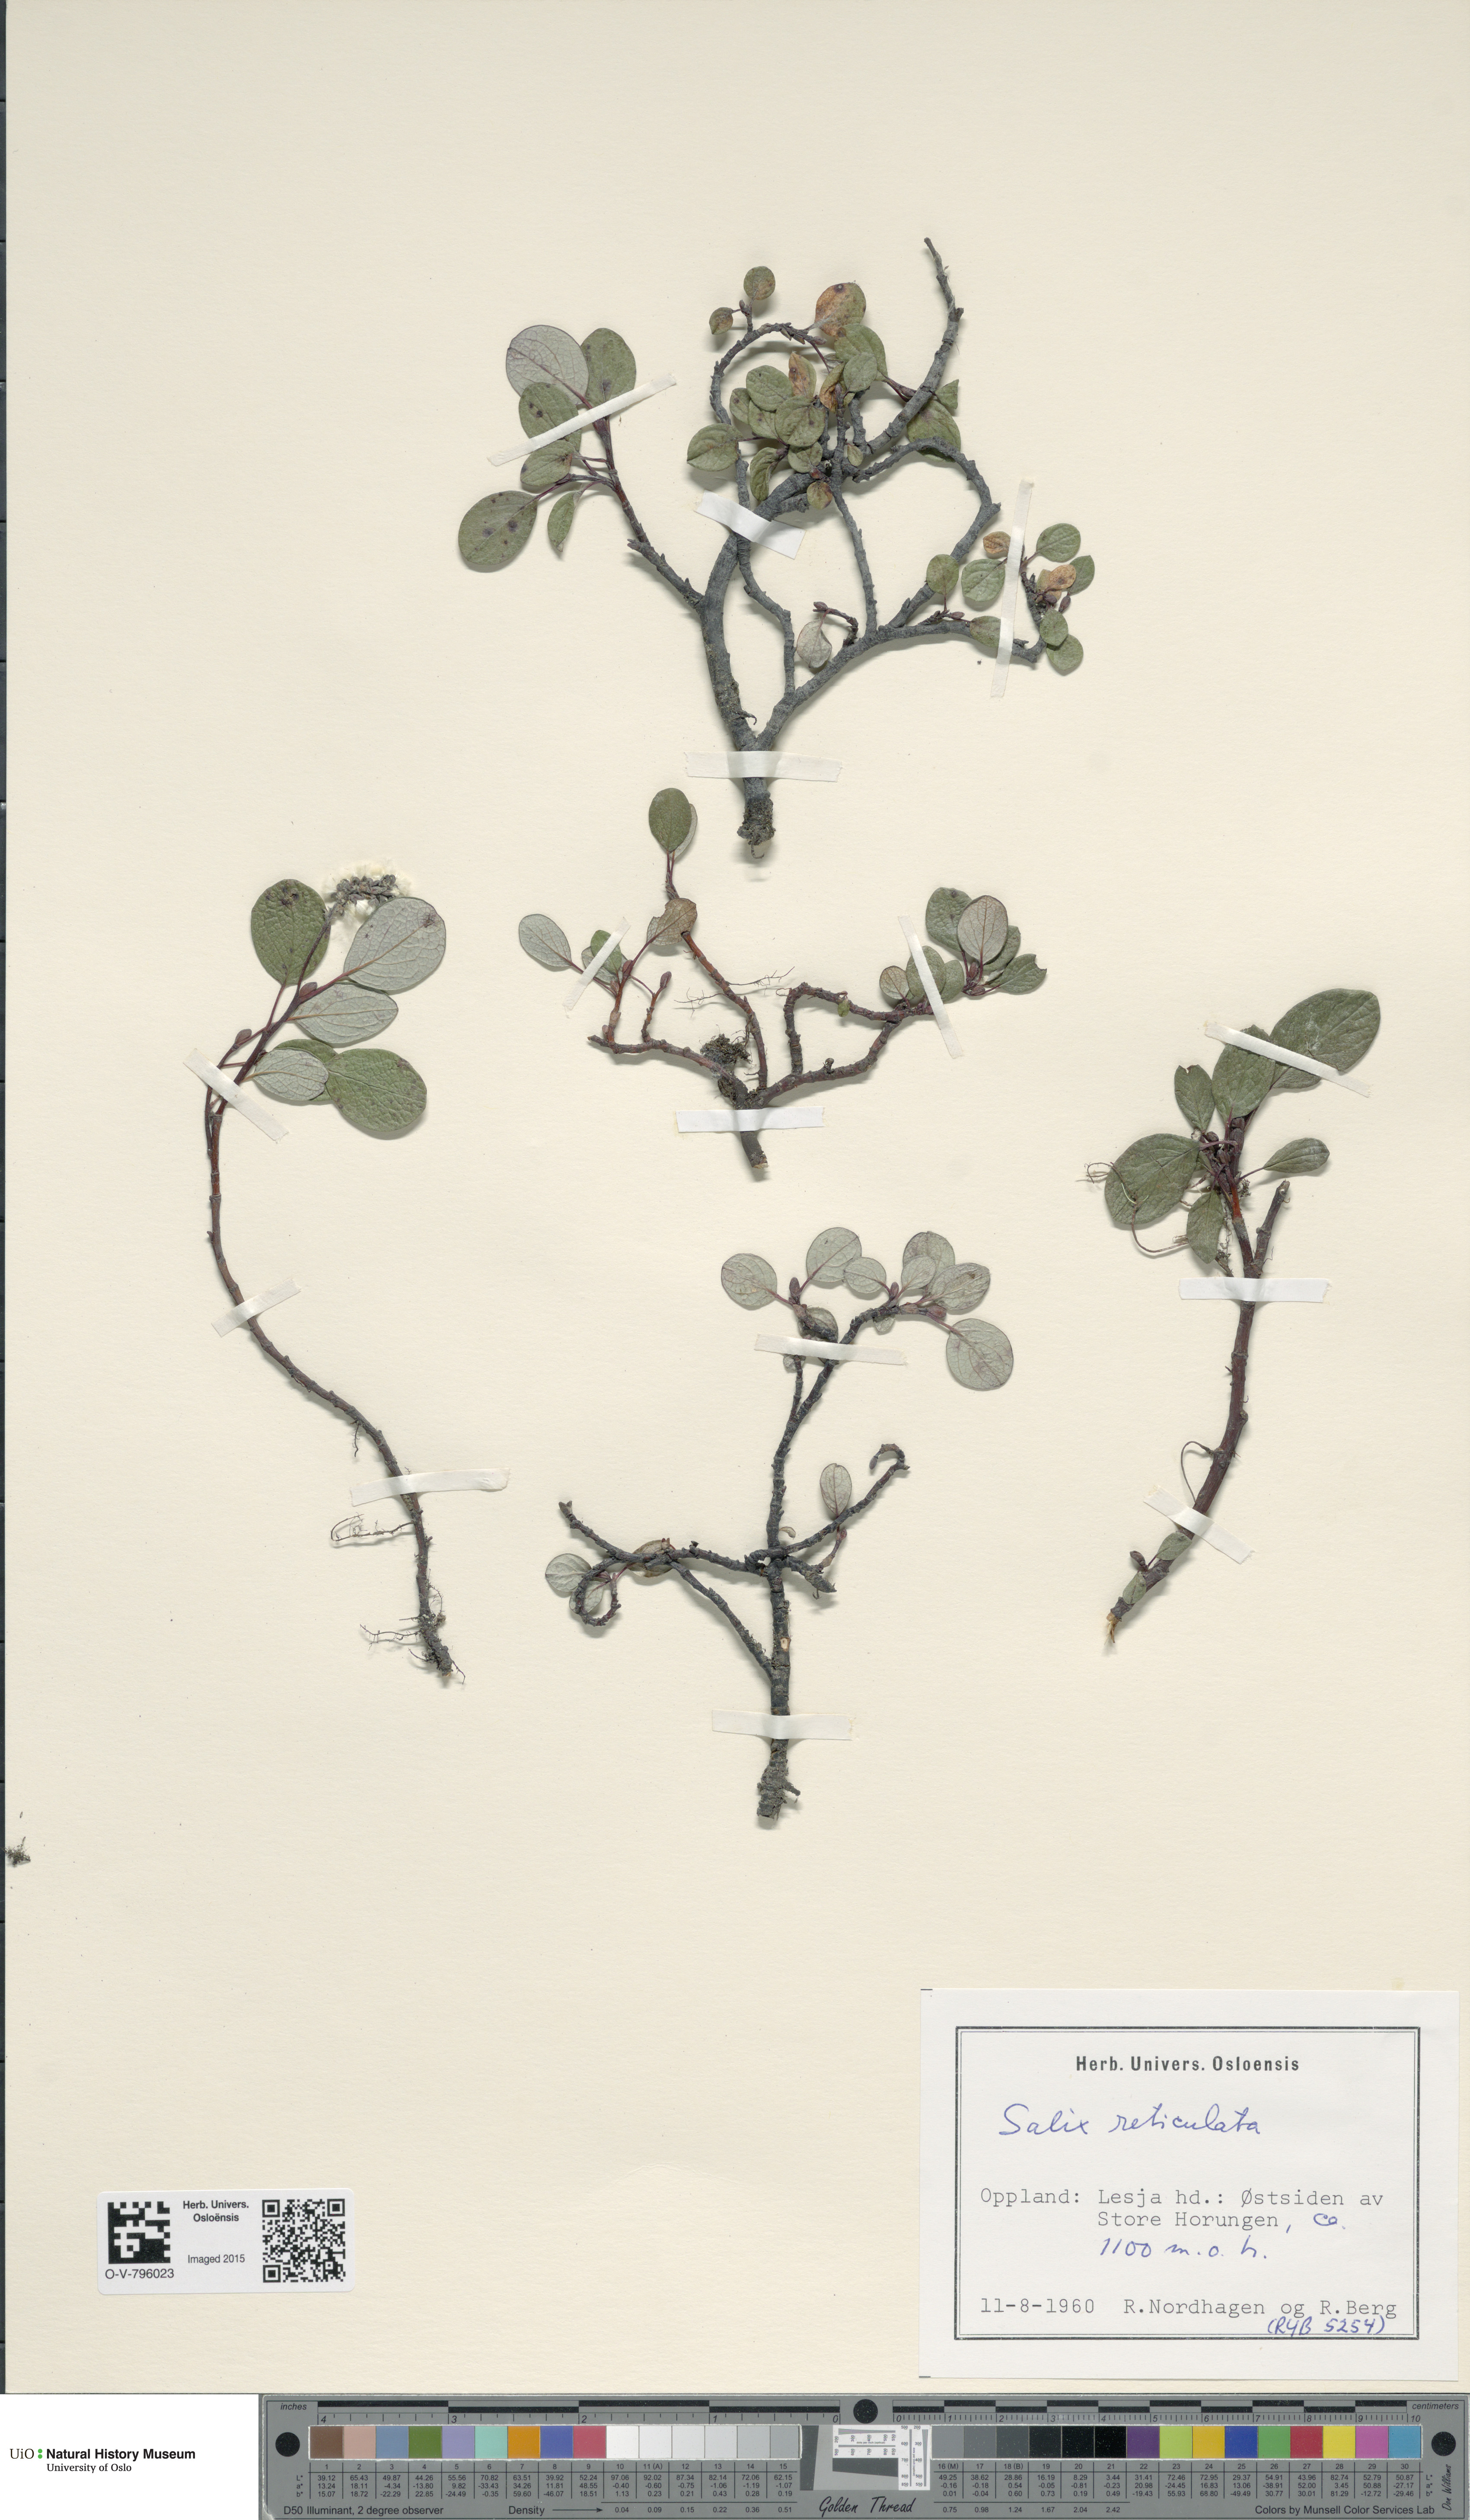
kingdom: Plantae
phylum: Tracheophyta
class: Magnoliopsida
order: Malpighiales
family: Salicaceae
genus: Salix
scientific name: Salix reticulata
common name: Net-leaved willow
